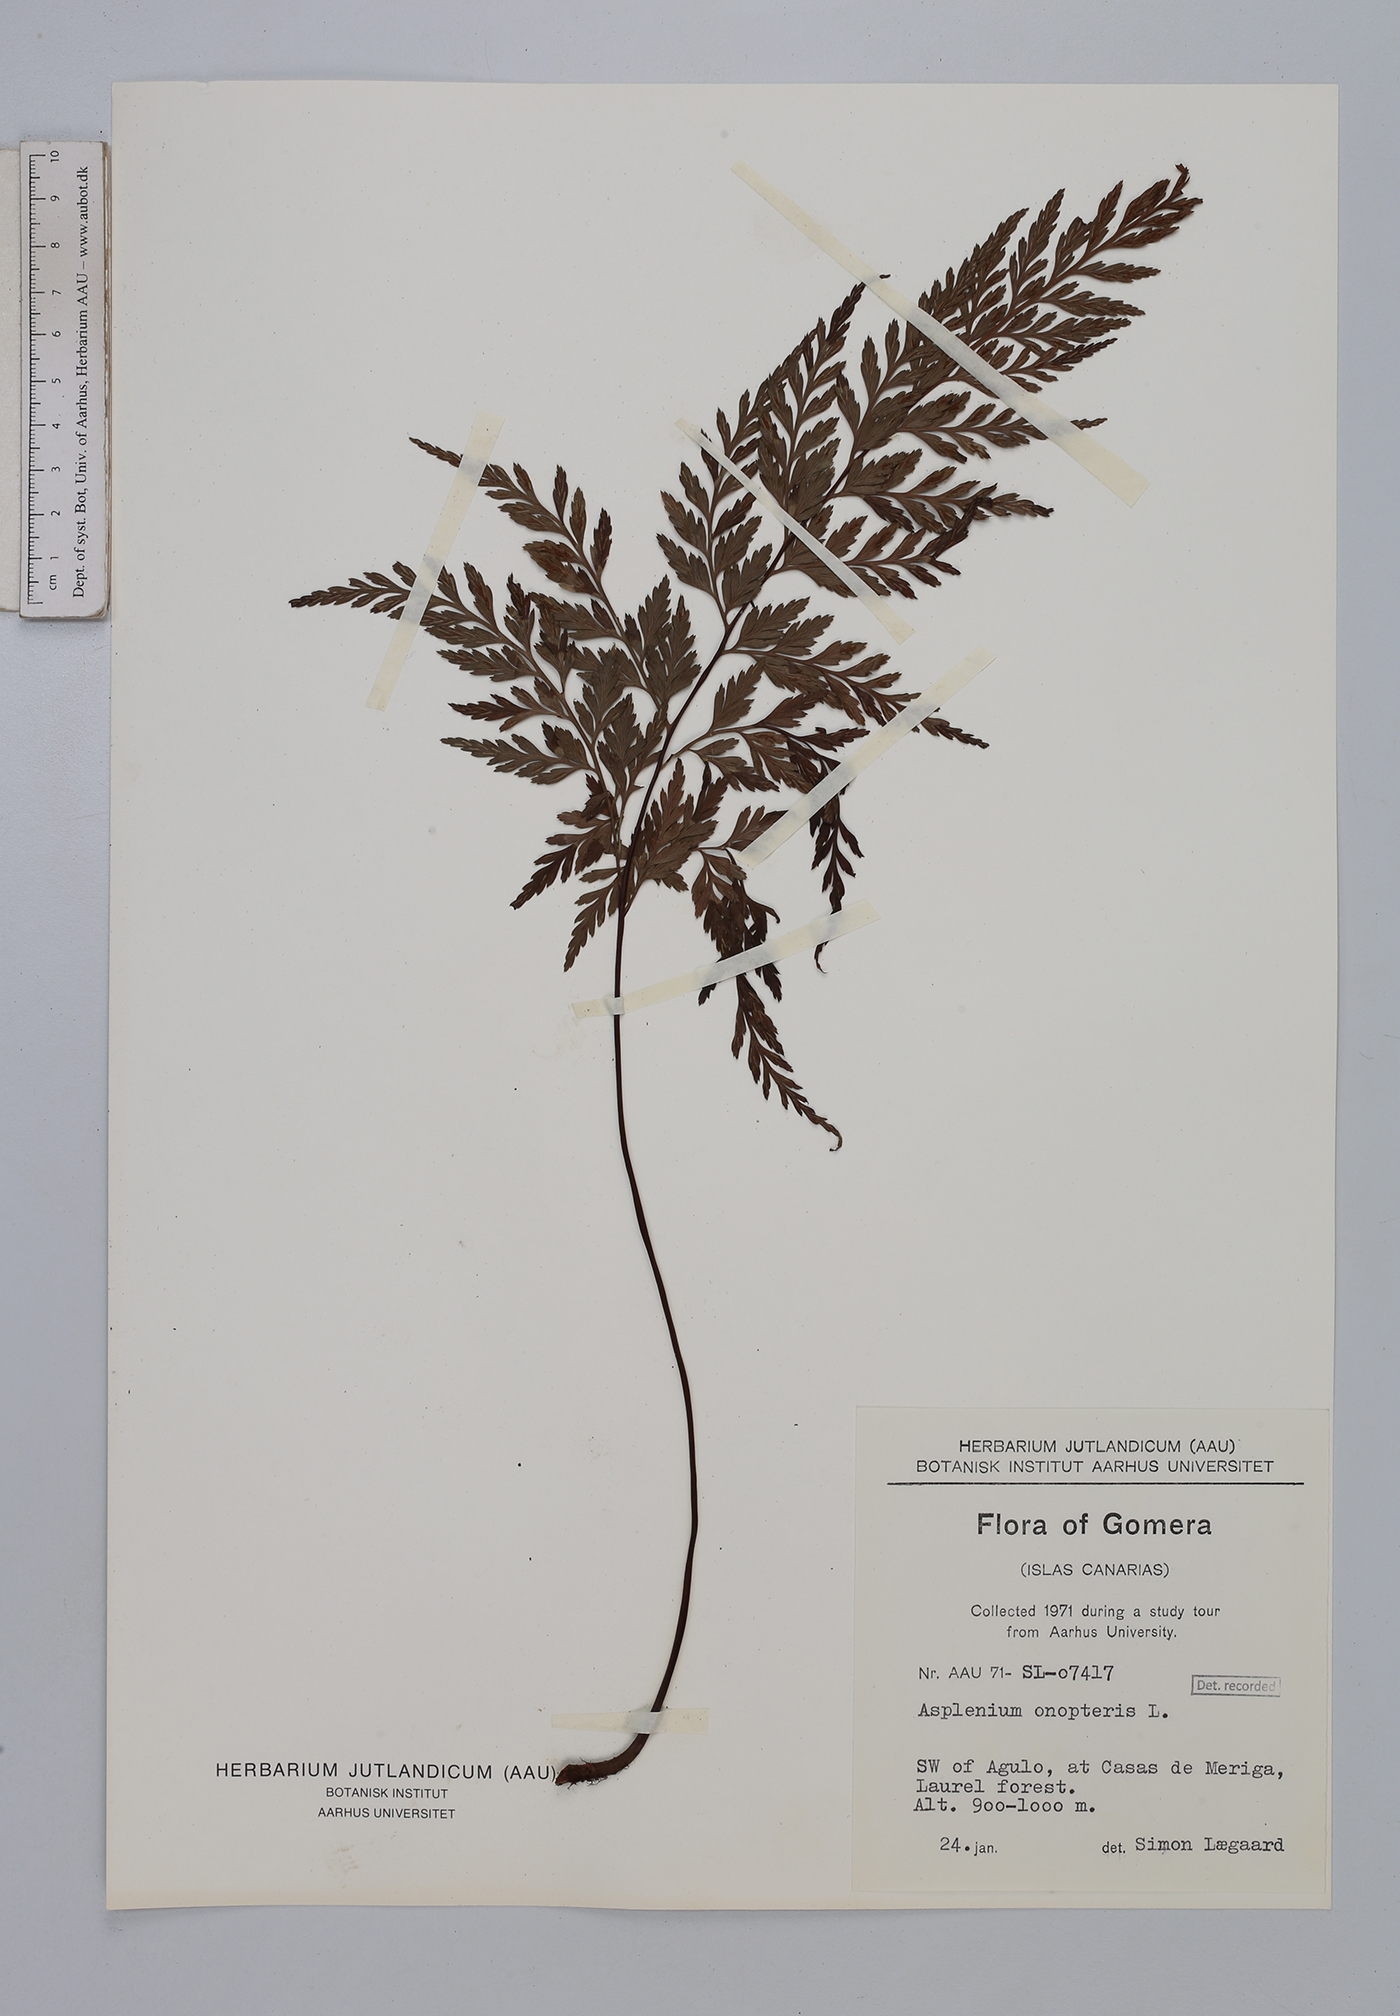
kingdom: Plantae
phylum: Tracheophyta
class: Polypodiopsida
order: Polypodiales
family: Aspleniaceae
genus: Asplenium
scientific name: Asplenium onopteris
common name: Irish spleenwort
